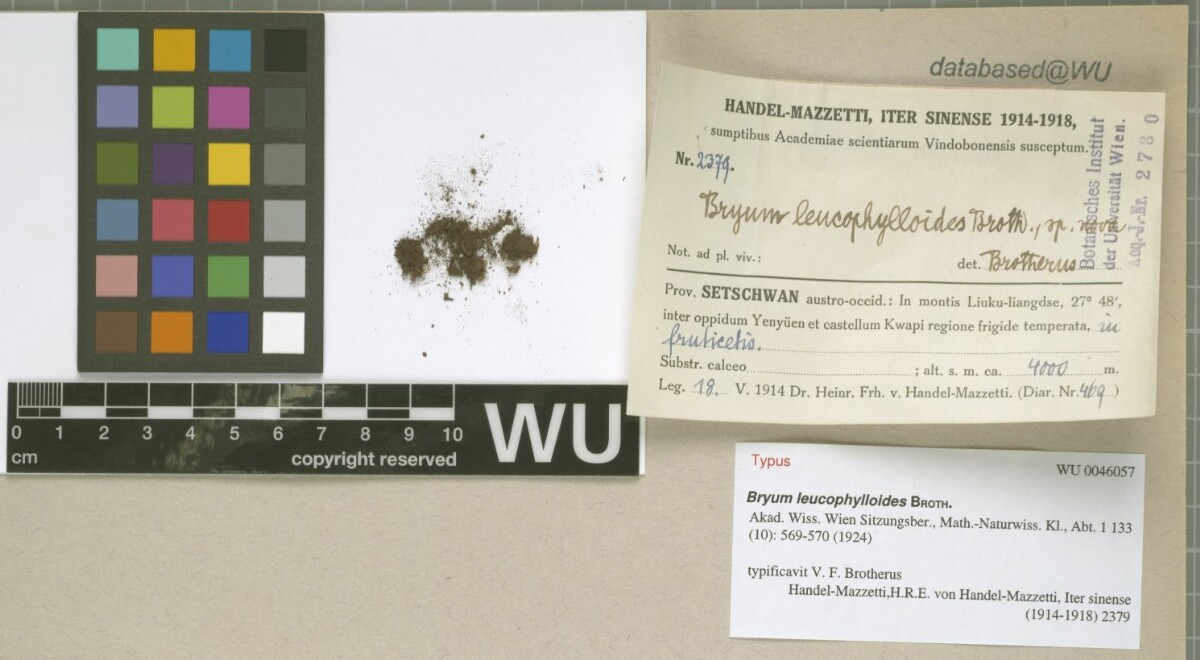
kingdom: Plantae
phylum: Bryophyta
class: Bryopsida
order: Bryales
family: Bryaceae
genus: Bryum
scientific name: Bryum leucophylloides
